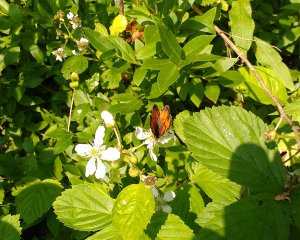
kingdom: Animalia
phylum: Arthropoda
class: Insecta
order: Lepidoptera
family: Nymphalidae
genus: Phyciodes
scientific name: Phyciodes tharos
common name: Northern Crescent
